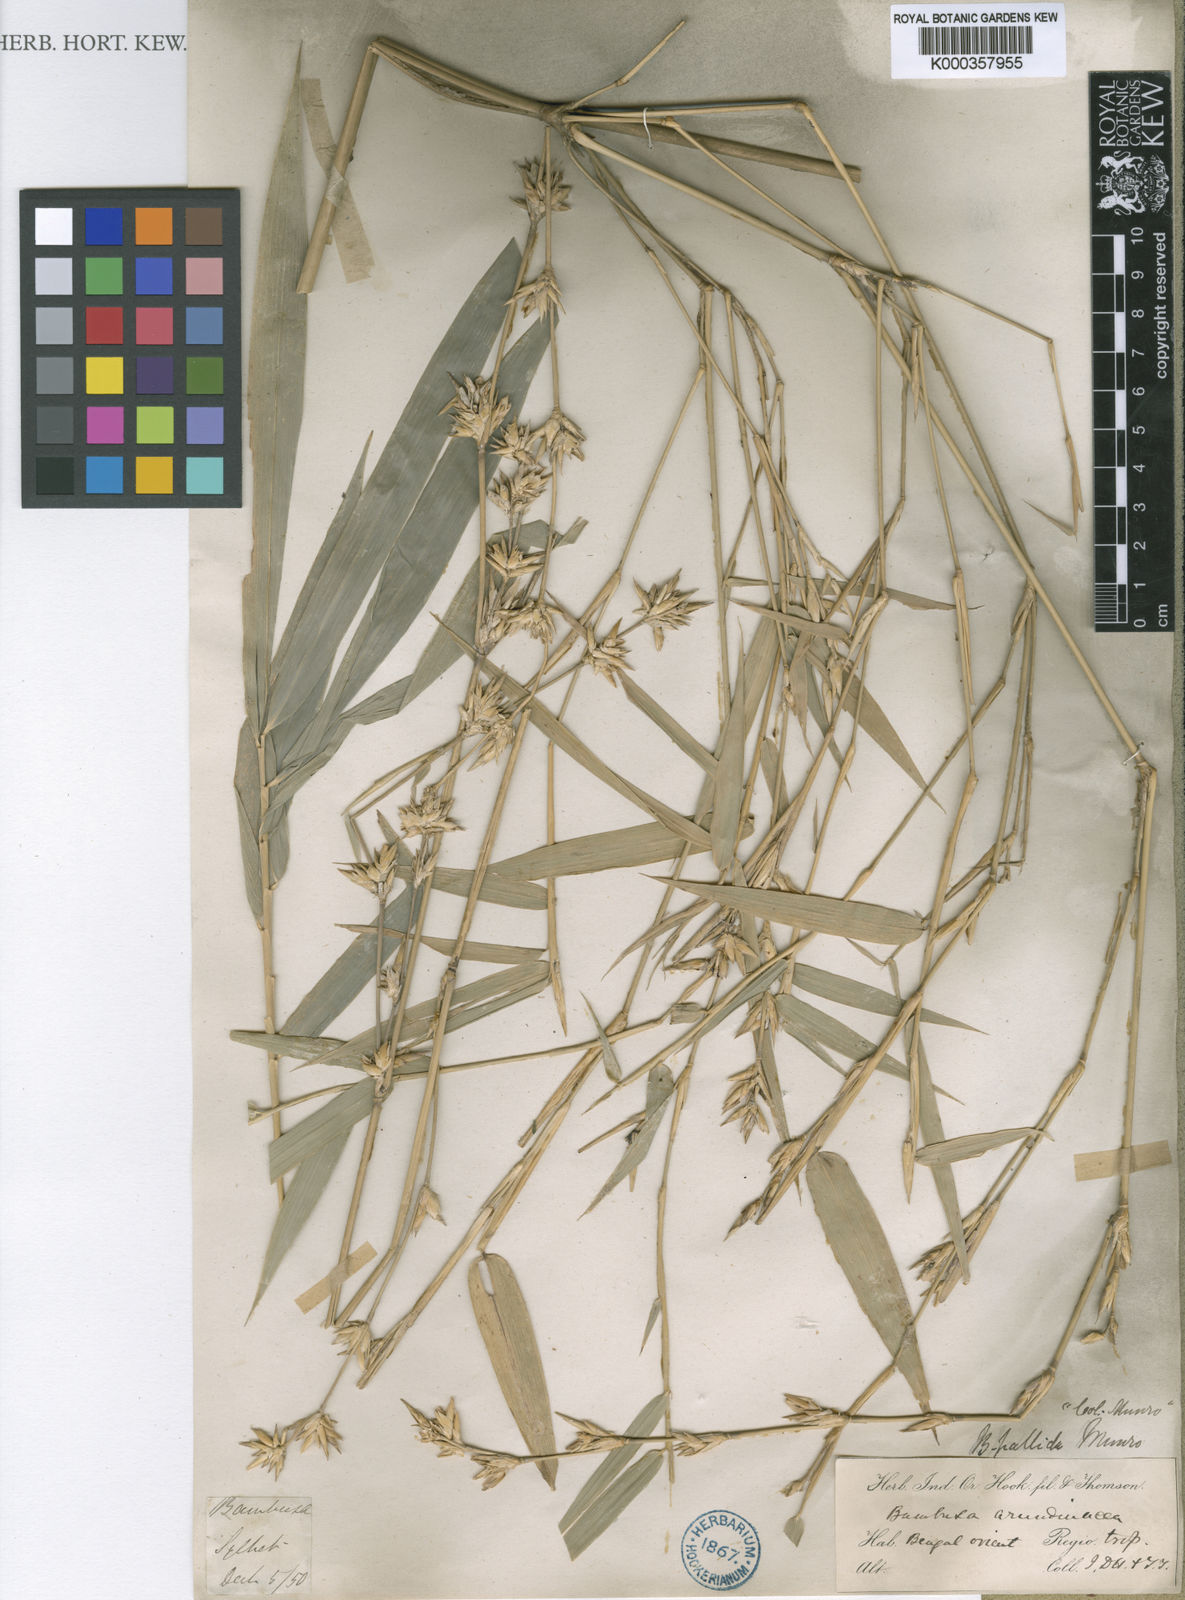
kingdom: Plantae
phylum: Tracheophyta
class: Liliopsida
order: Poales
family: Poaceae
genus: Bambusa
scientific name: Bambusa pallida
